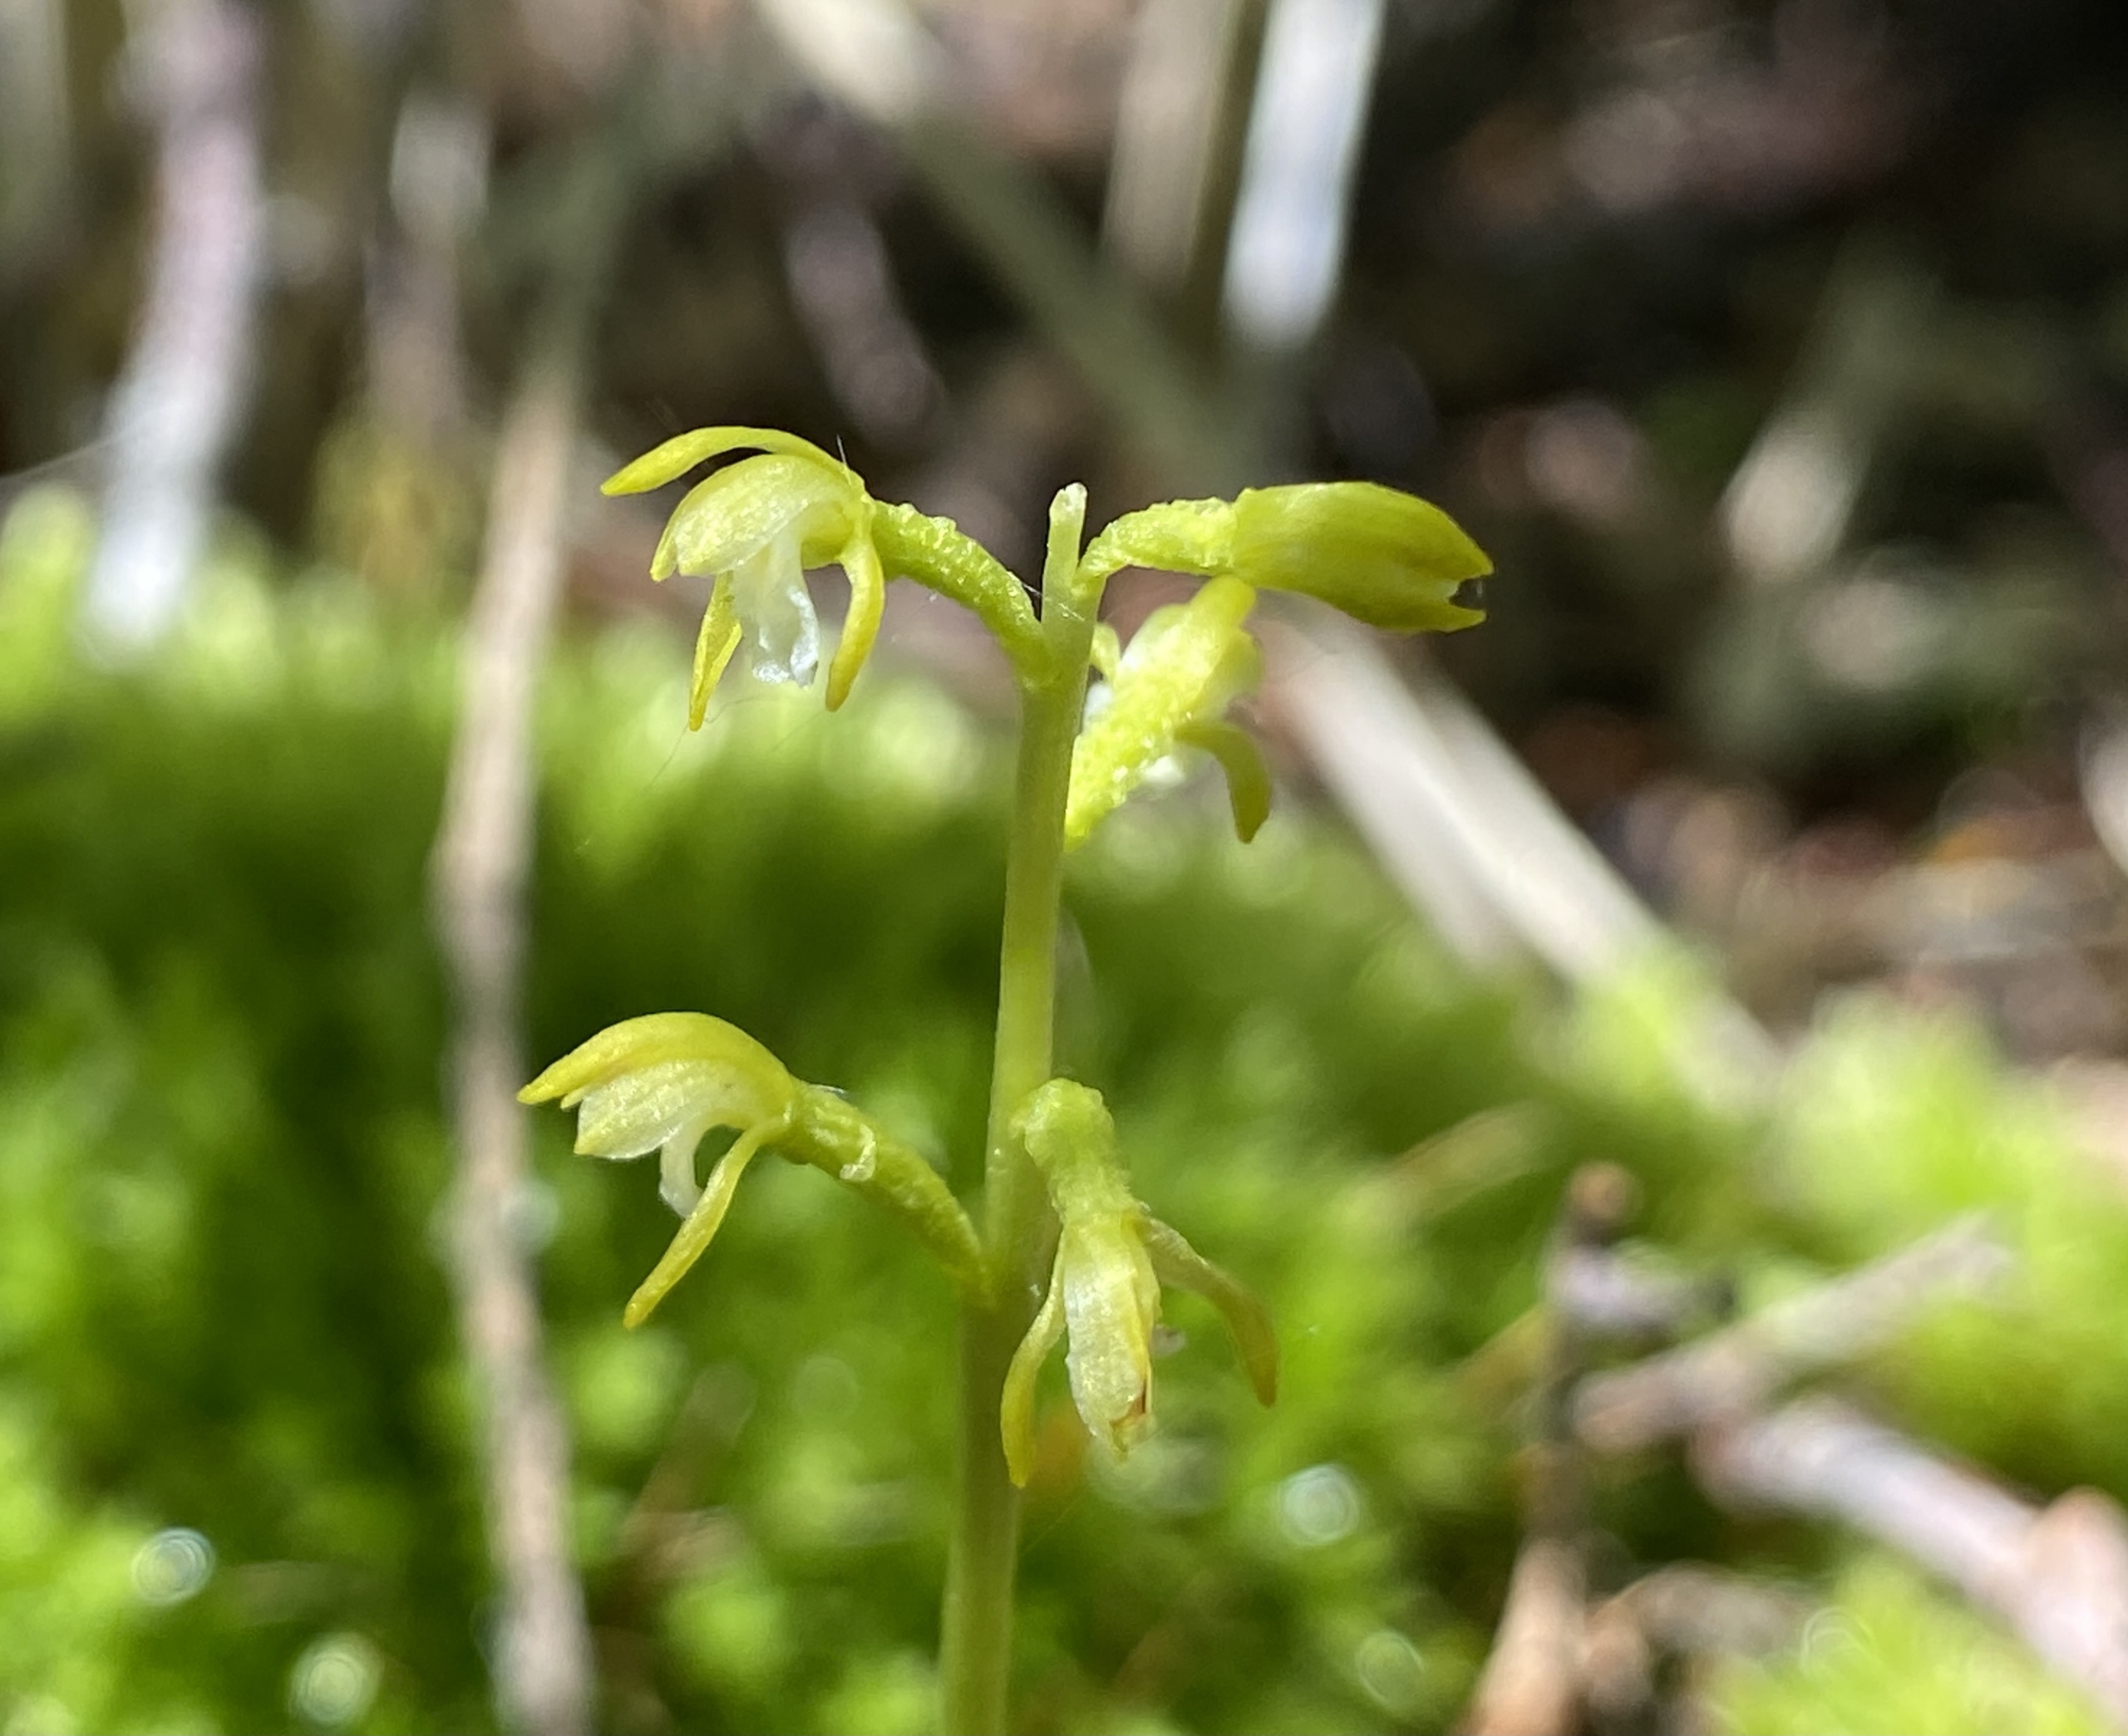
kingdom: Plantae
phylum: Tracheophyta
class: Liliopsida
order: Asparagales
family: Orchidaceae
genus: Corallorhiza
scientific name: Corallorhiza trifida
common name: Koralrod
